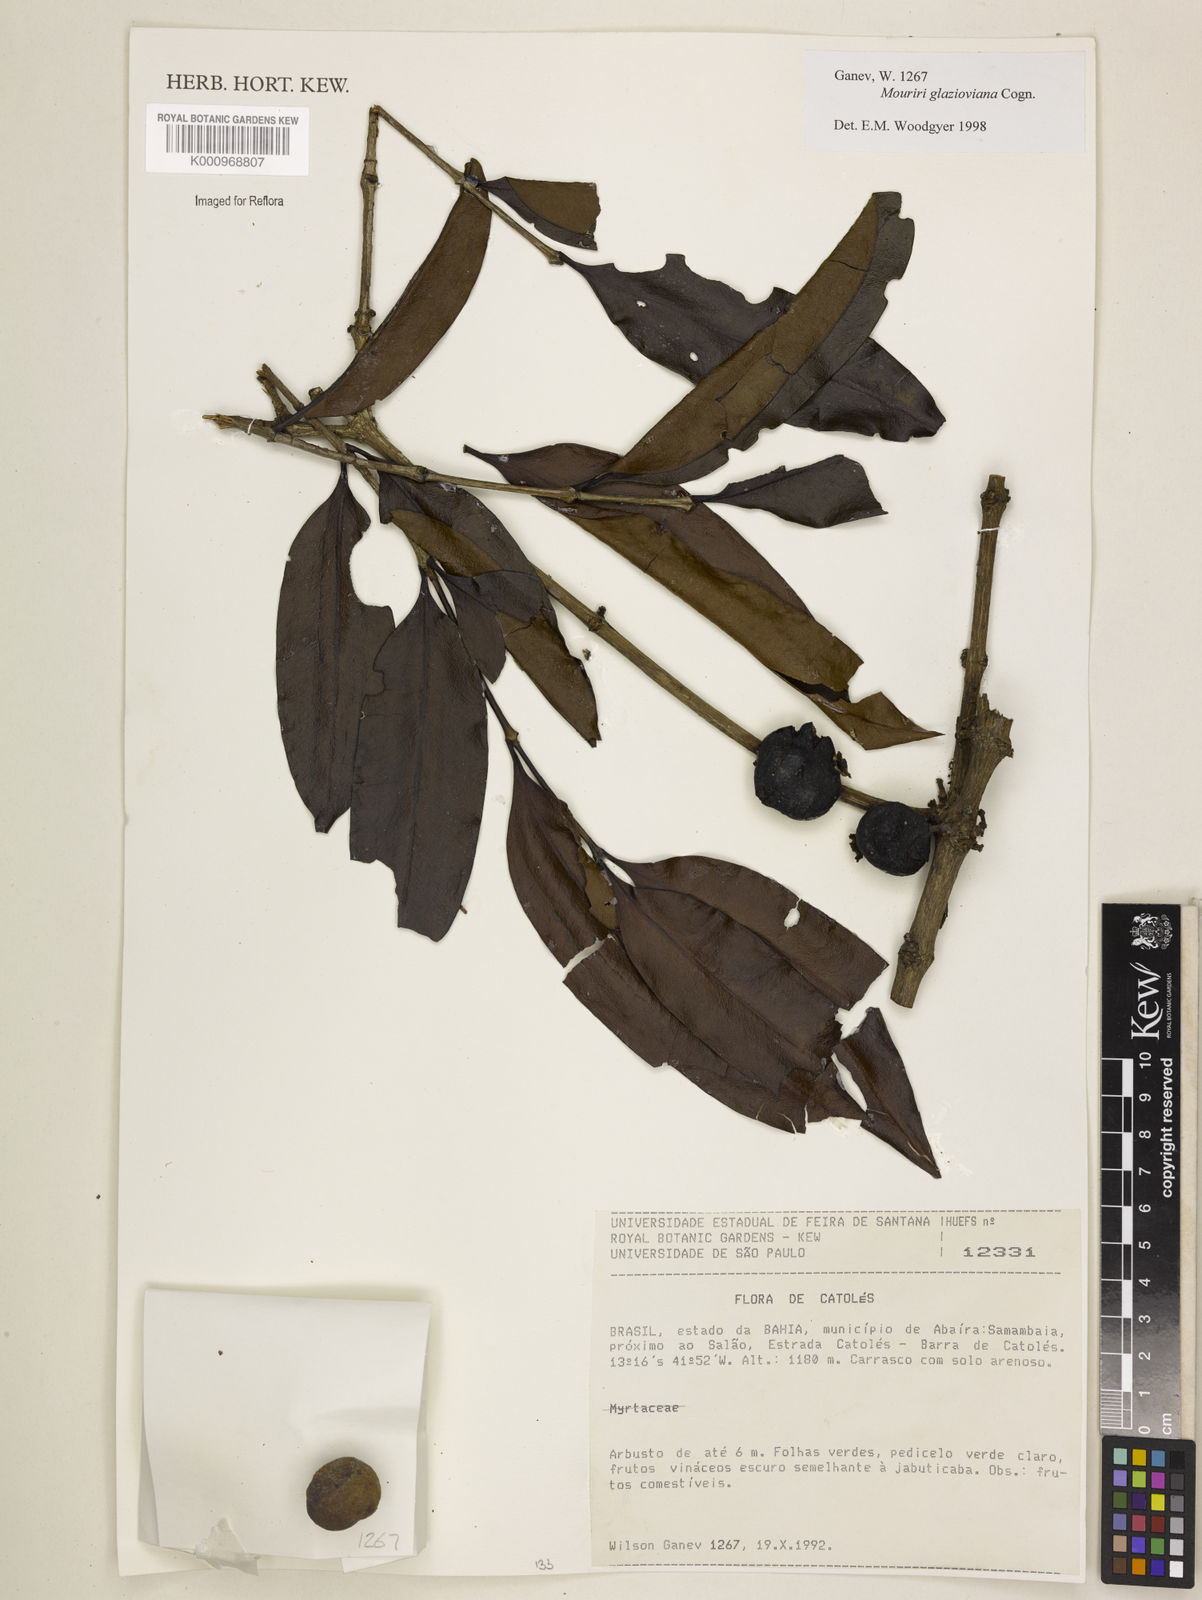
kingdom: Plantae
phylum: Tracheophyta
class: Magnoliopsida
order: Myrtales
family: Melastomataceae
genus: Mouriri
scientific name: Mouriri glazioviana
